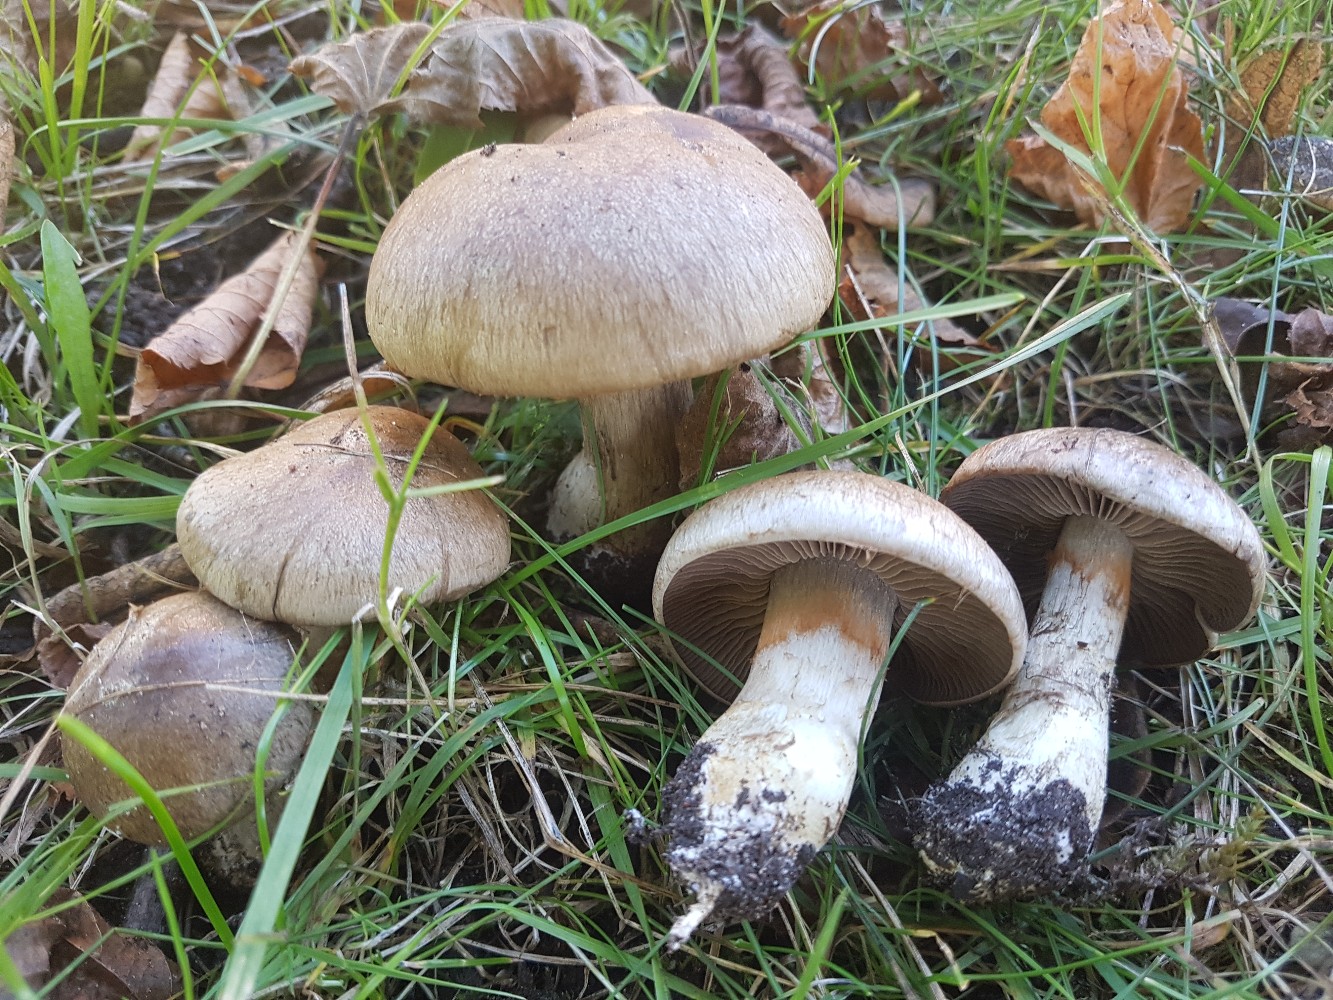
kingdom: Fungi
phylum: Basidiomycota
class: Agaricomycetes
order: Agaricales
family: Cortinariaceae
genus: Cortinarius
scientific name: Cortinarius
